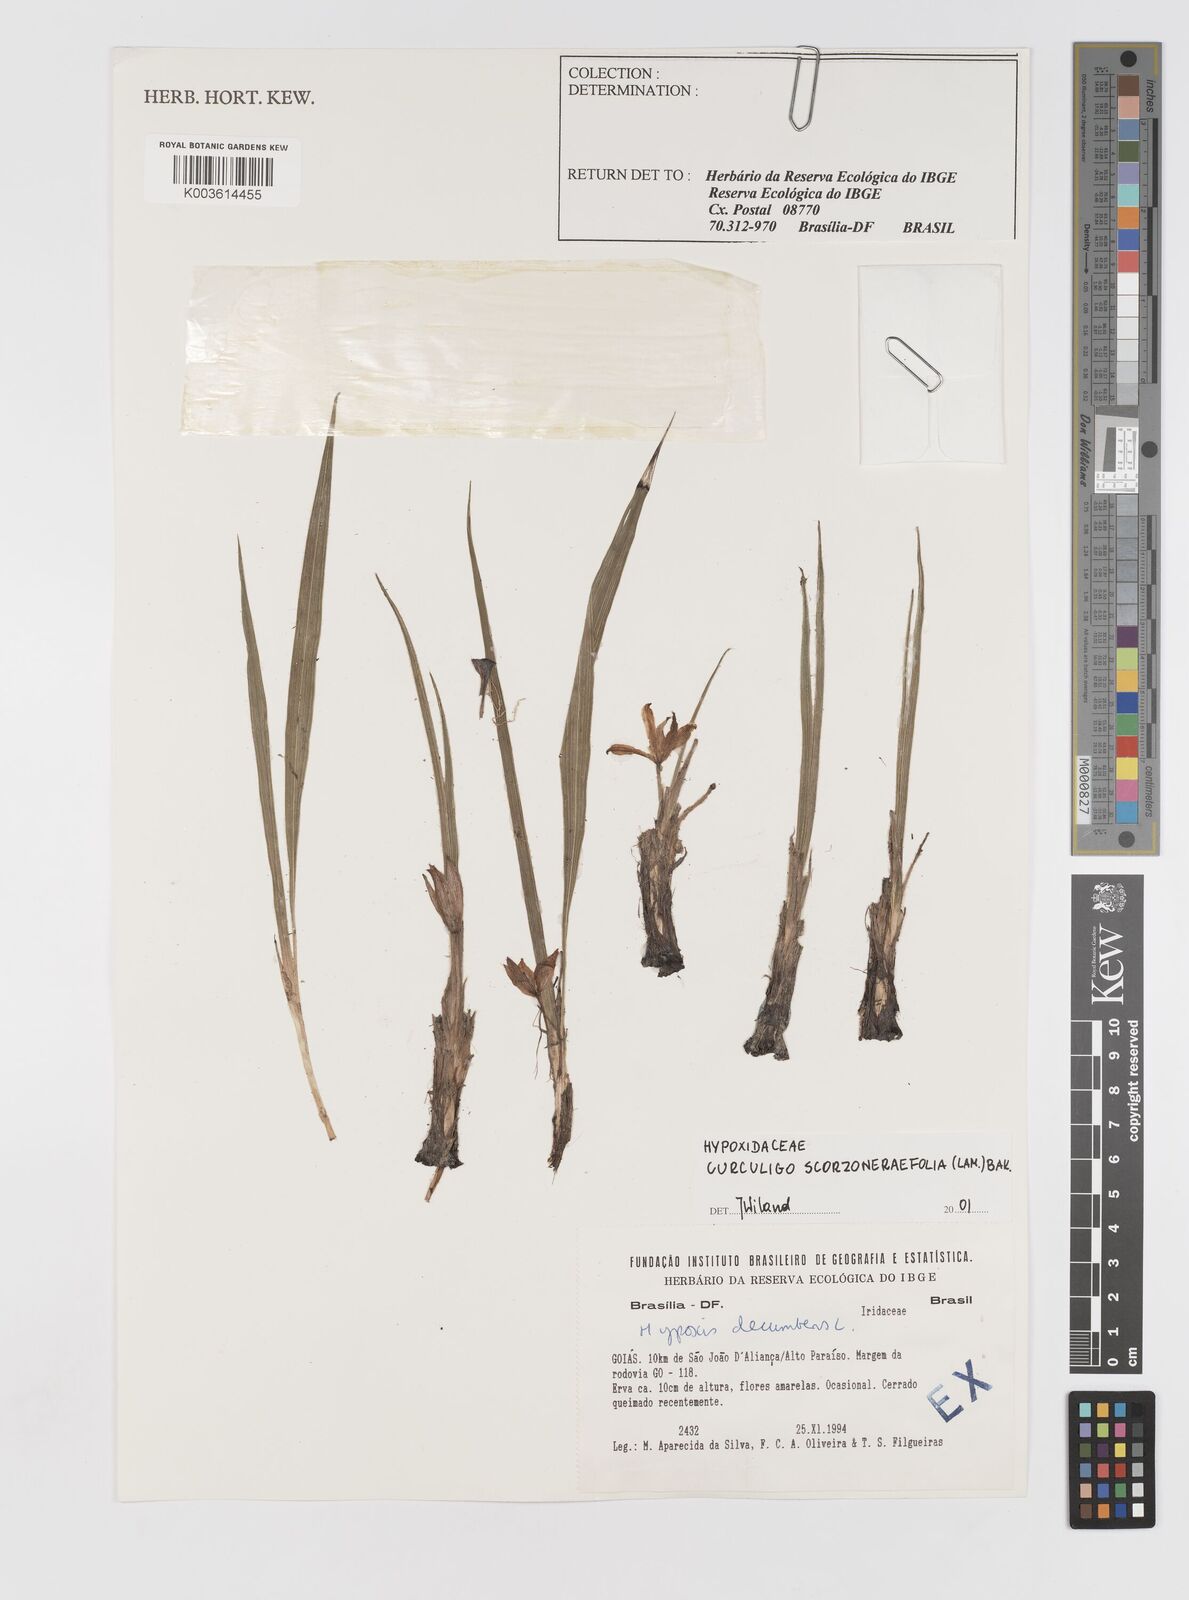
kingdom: Plantae
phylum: Tracheophyta
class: Liliopsida
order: Asparagales
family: Hypoxidaceae
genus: Curculigo
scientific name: Curculigo scorzonerifolia
